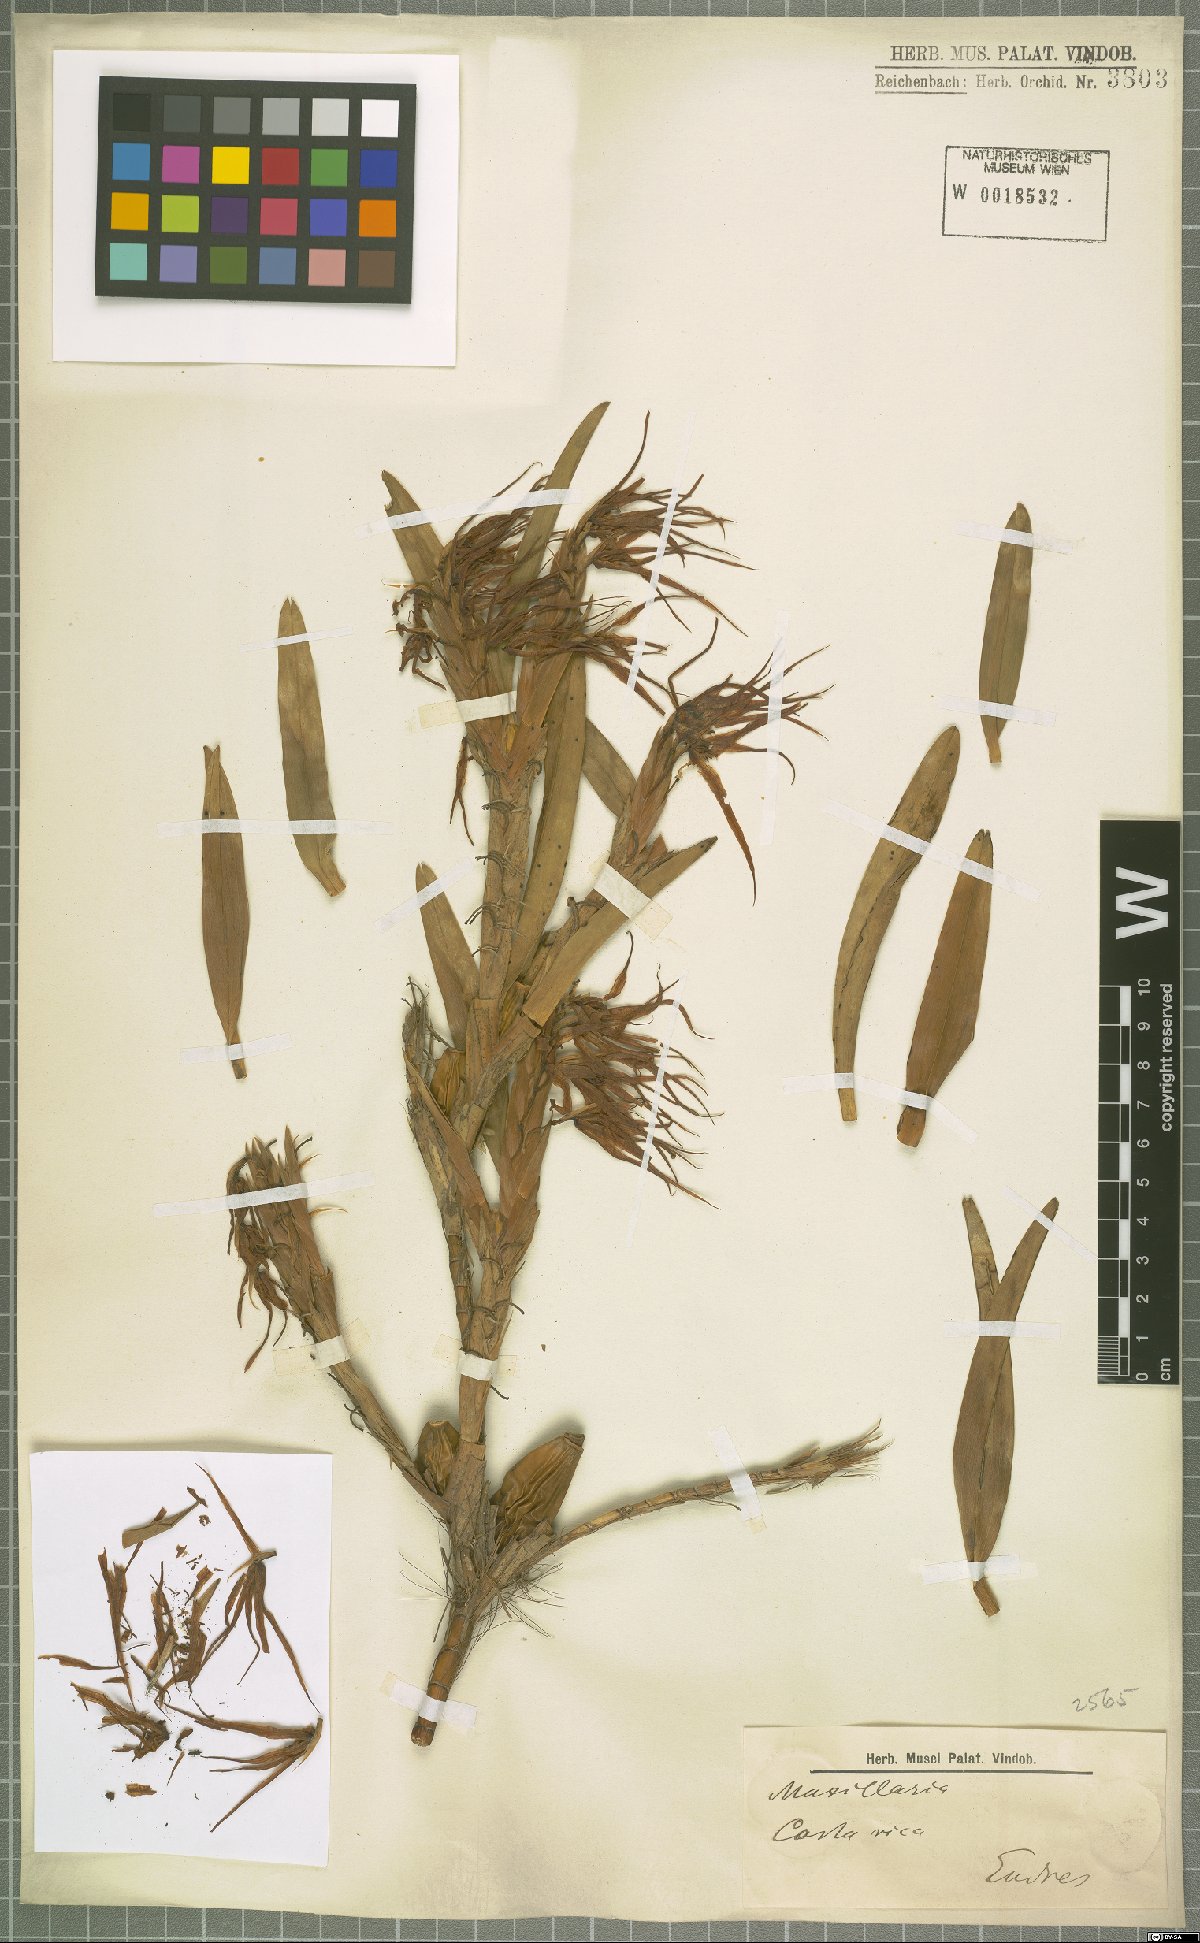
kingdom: Plantae
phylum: Tracheophyta
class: Liliopsida
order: Asparagales
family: Orchidaceae
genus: Maxillaria
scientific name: Maxillaria
